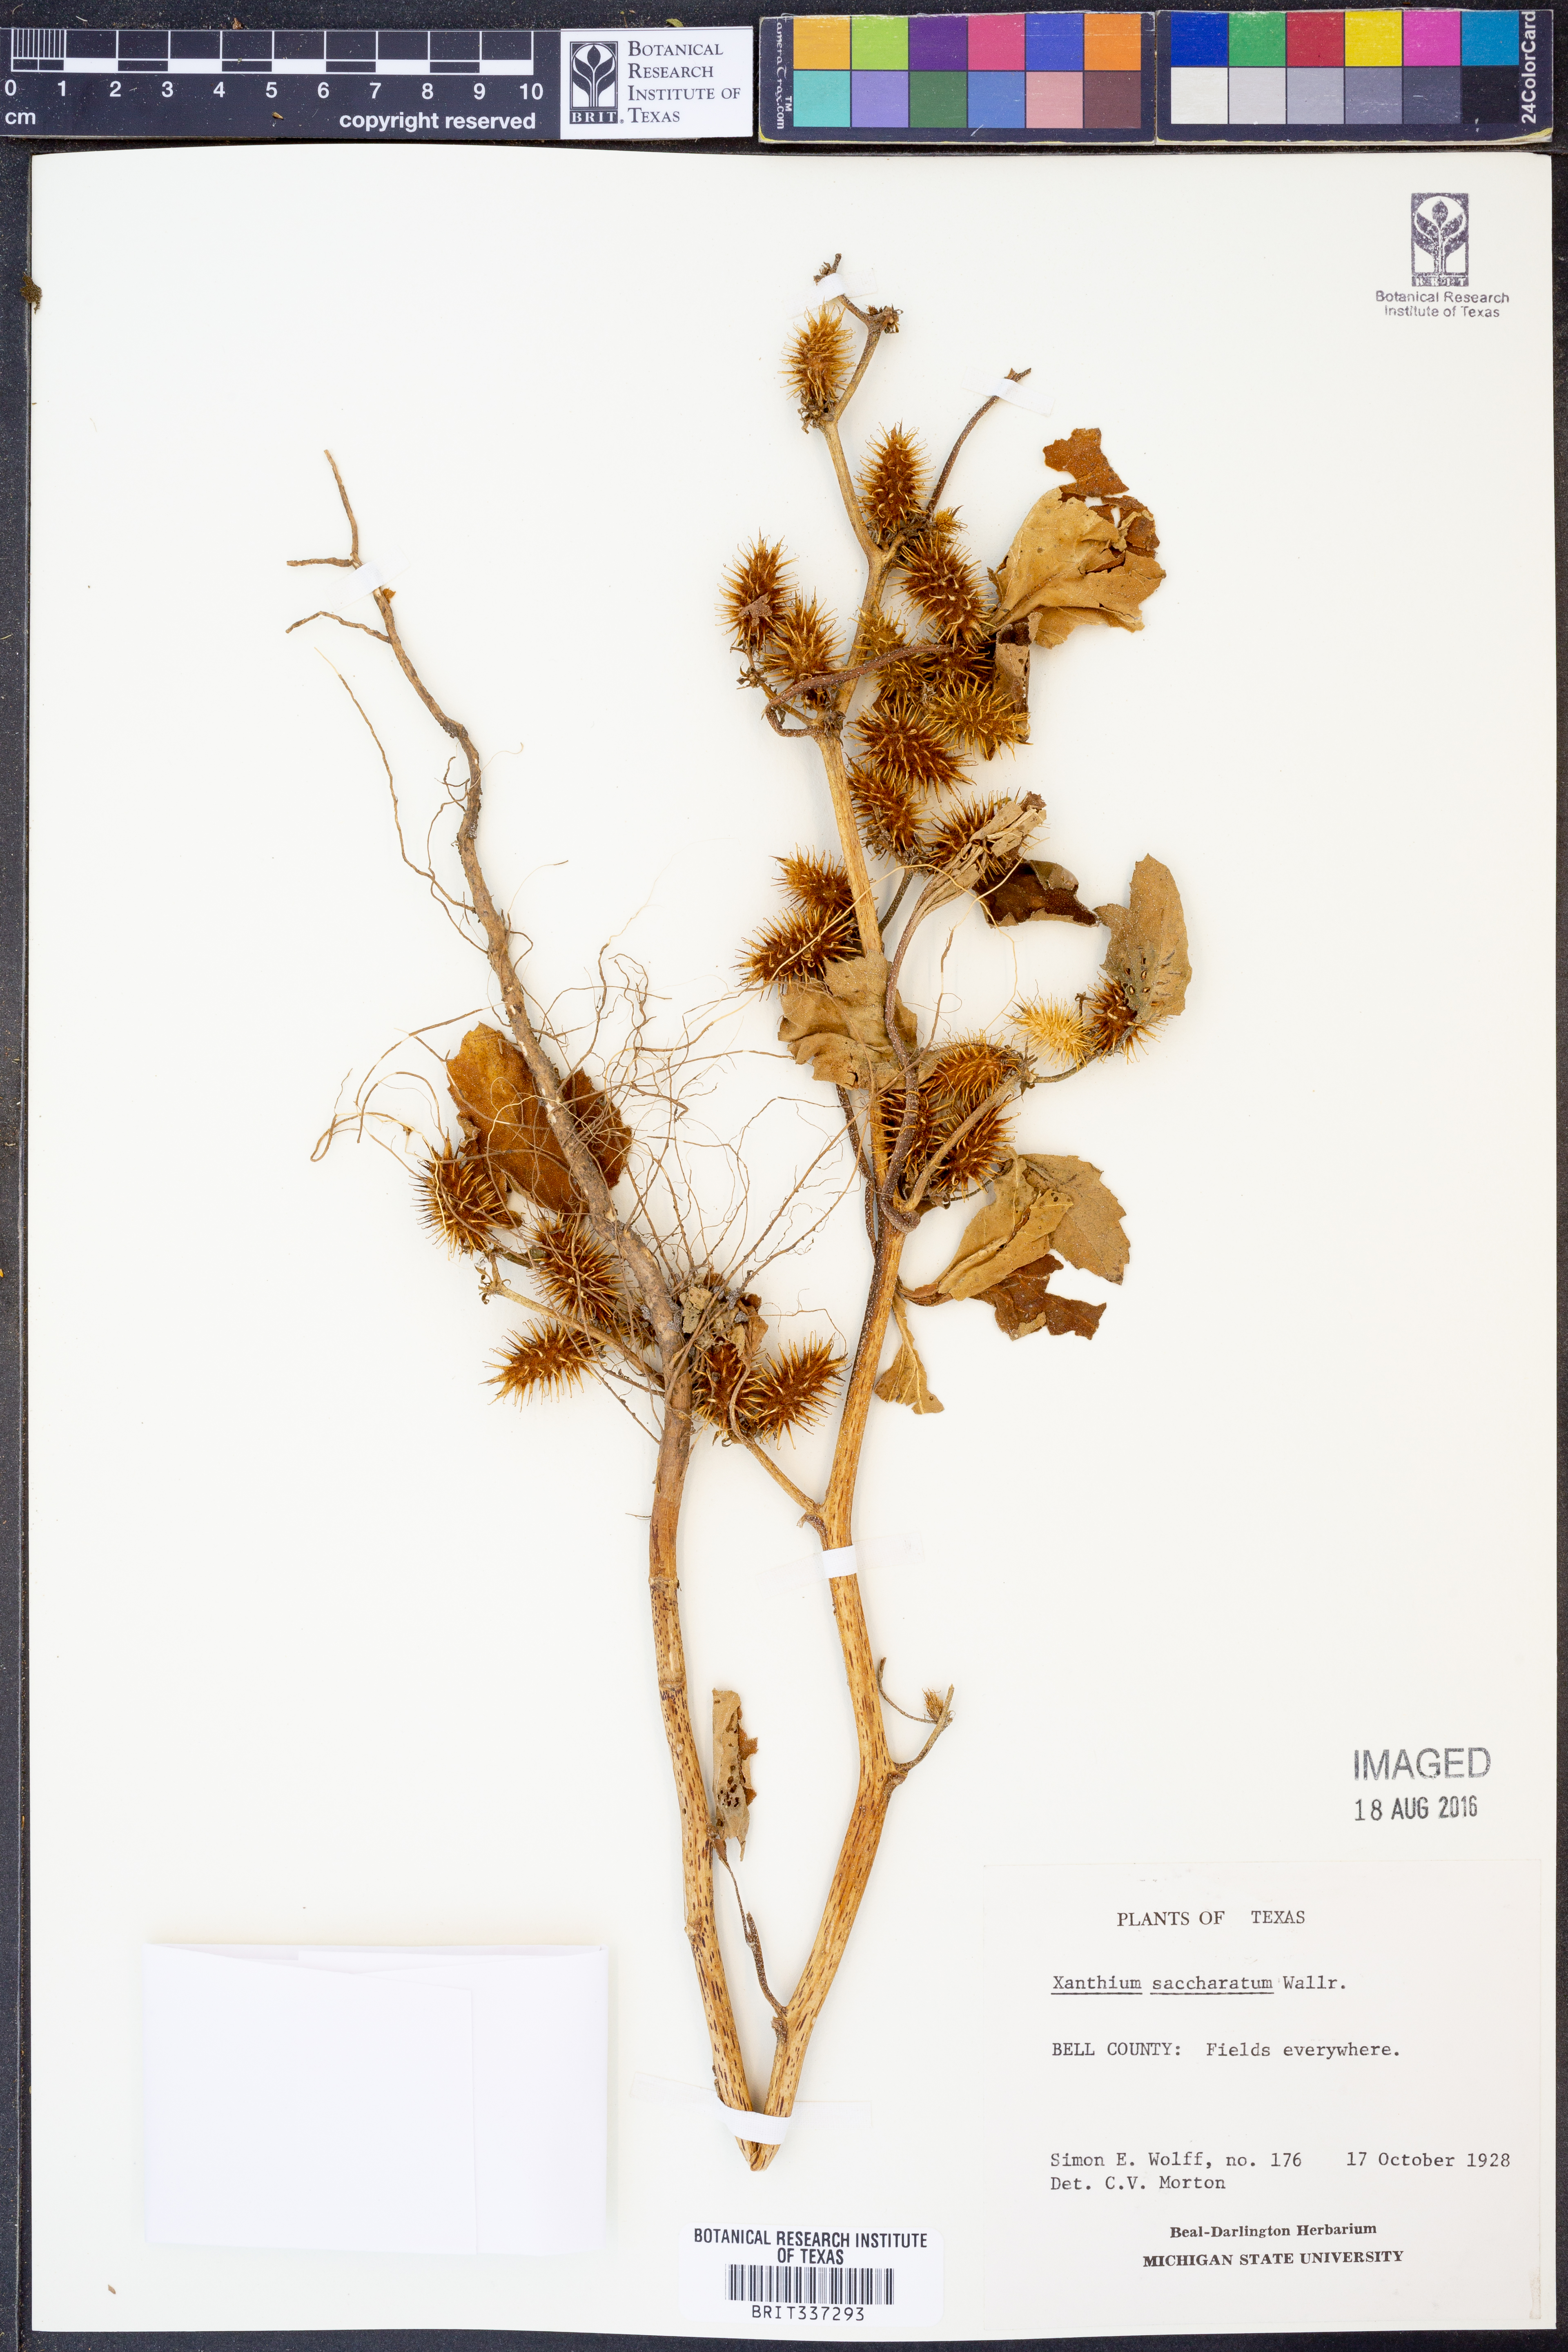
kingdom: Plantae
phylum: Tracheophyta
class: Magnoliopsida
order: Asterales
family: Asteraceae
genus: Xanthium
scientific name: Xanthium orientale
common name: Californian burr
